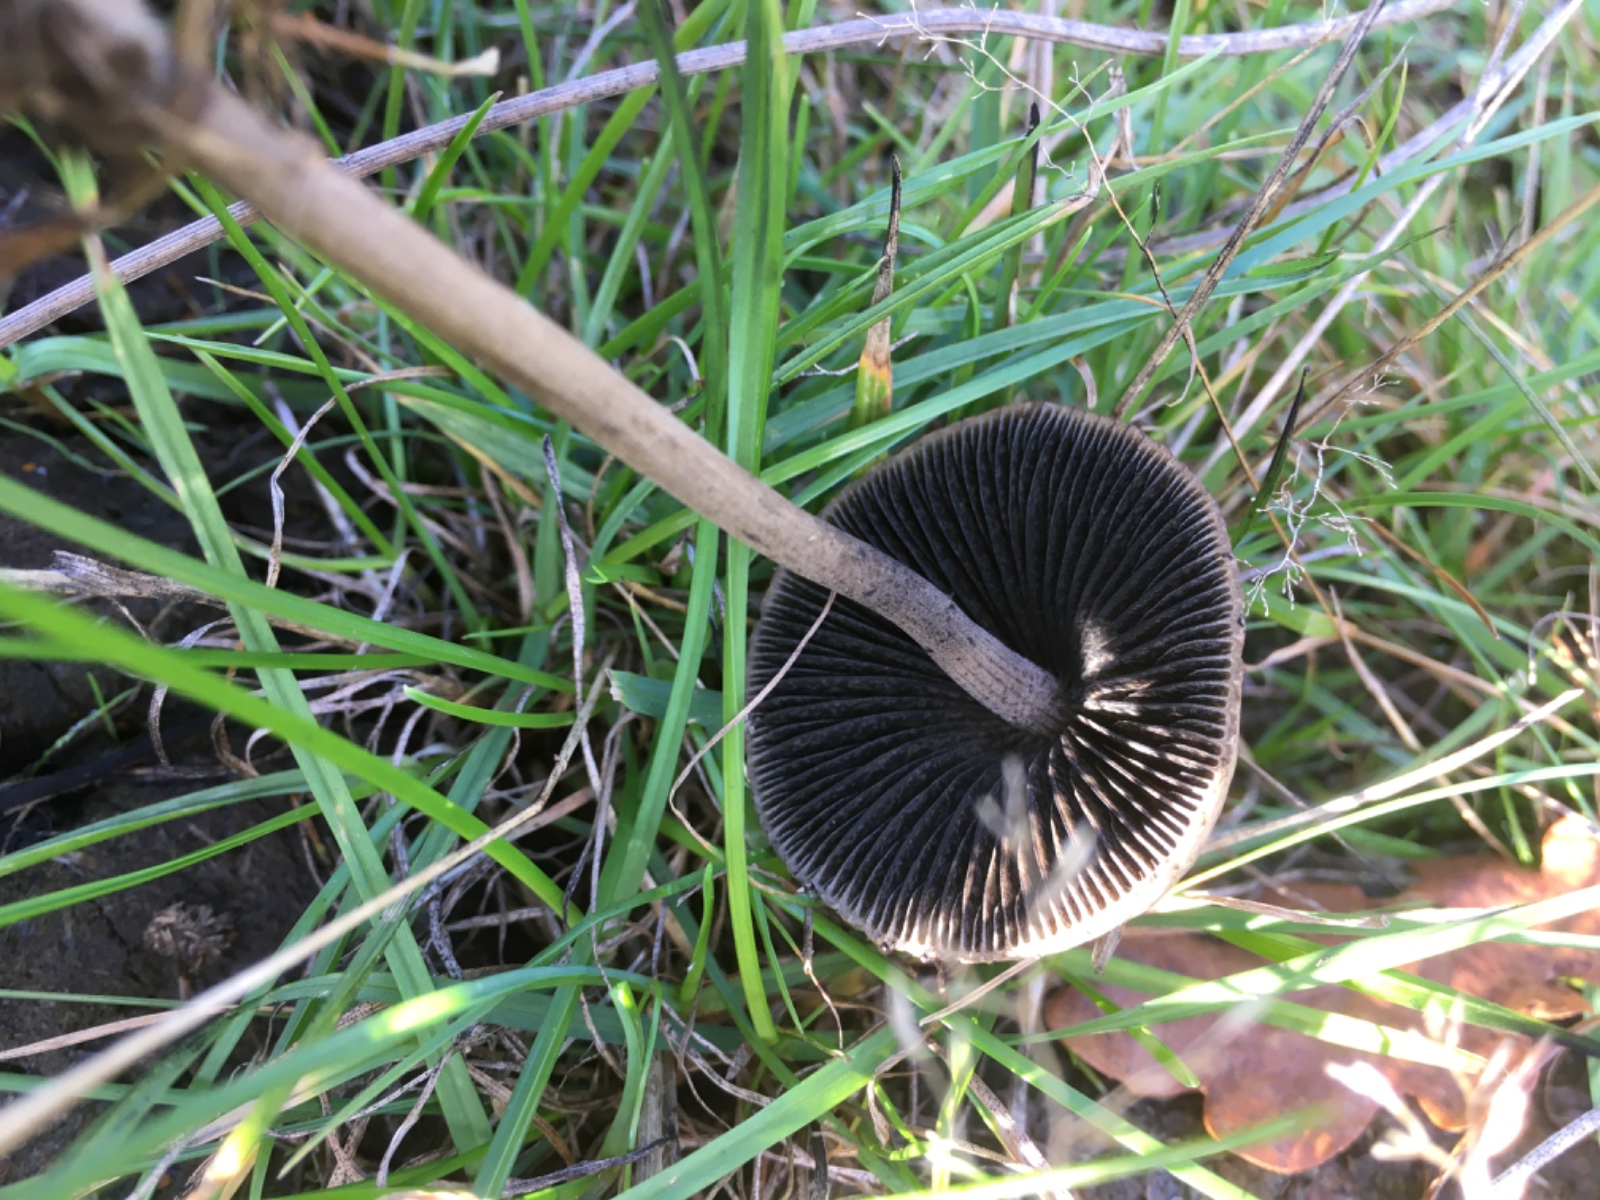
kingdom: Fungi
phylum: Basidiomycota
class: Agaricomycetes
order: Agaricales
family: Bolbitiaceae
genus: Panaeolus
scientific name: Panaeolus
